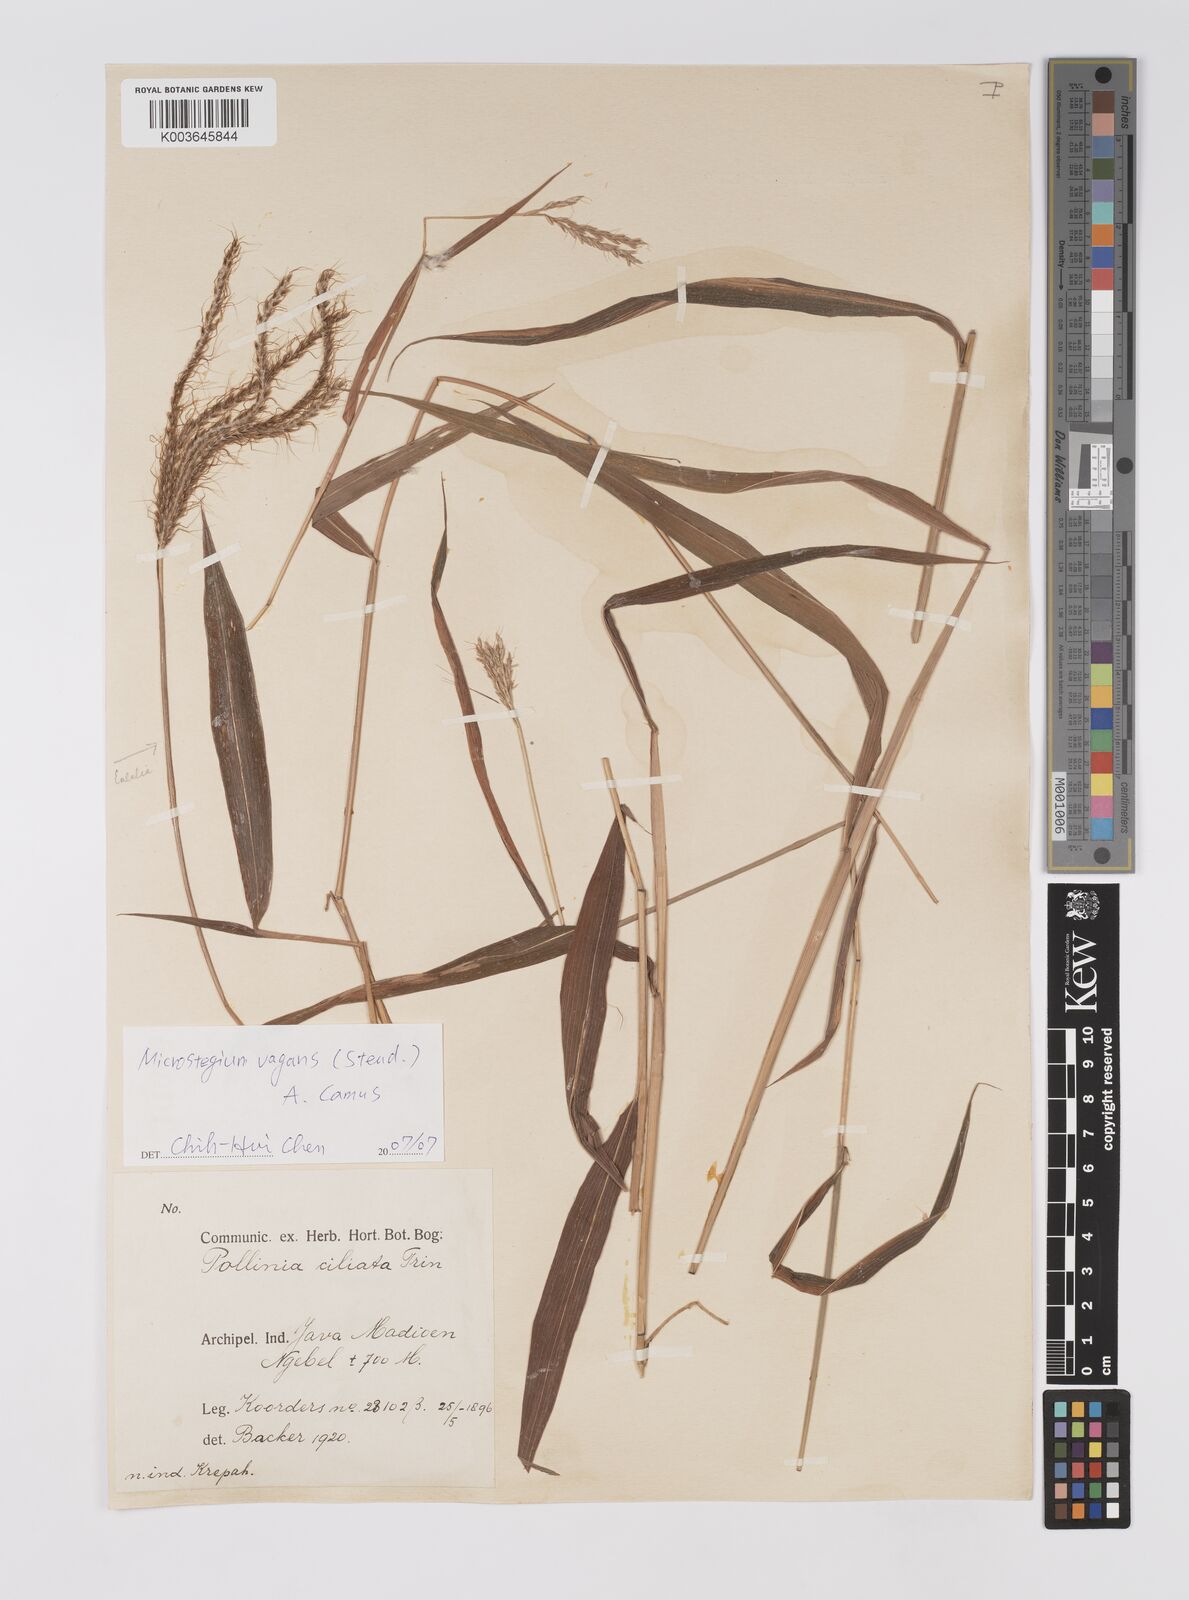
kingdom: Plantae
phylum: Tracheophyta
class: Liliopsida
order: Poales
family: Poaceae
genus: Microstegium
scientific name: Microstegium fasciculatum
